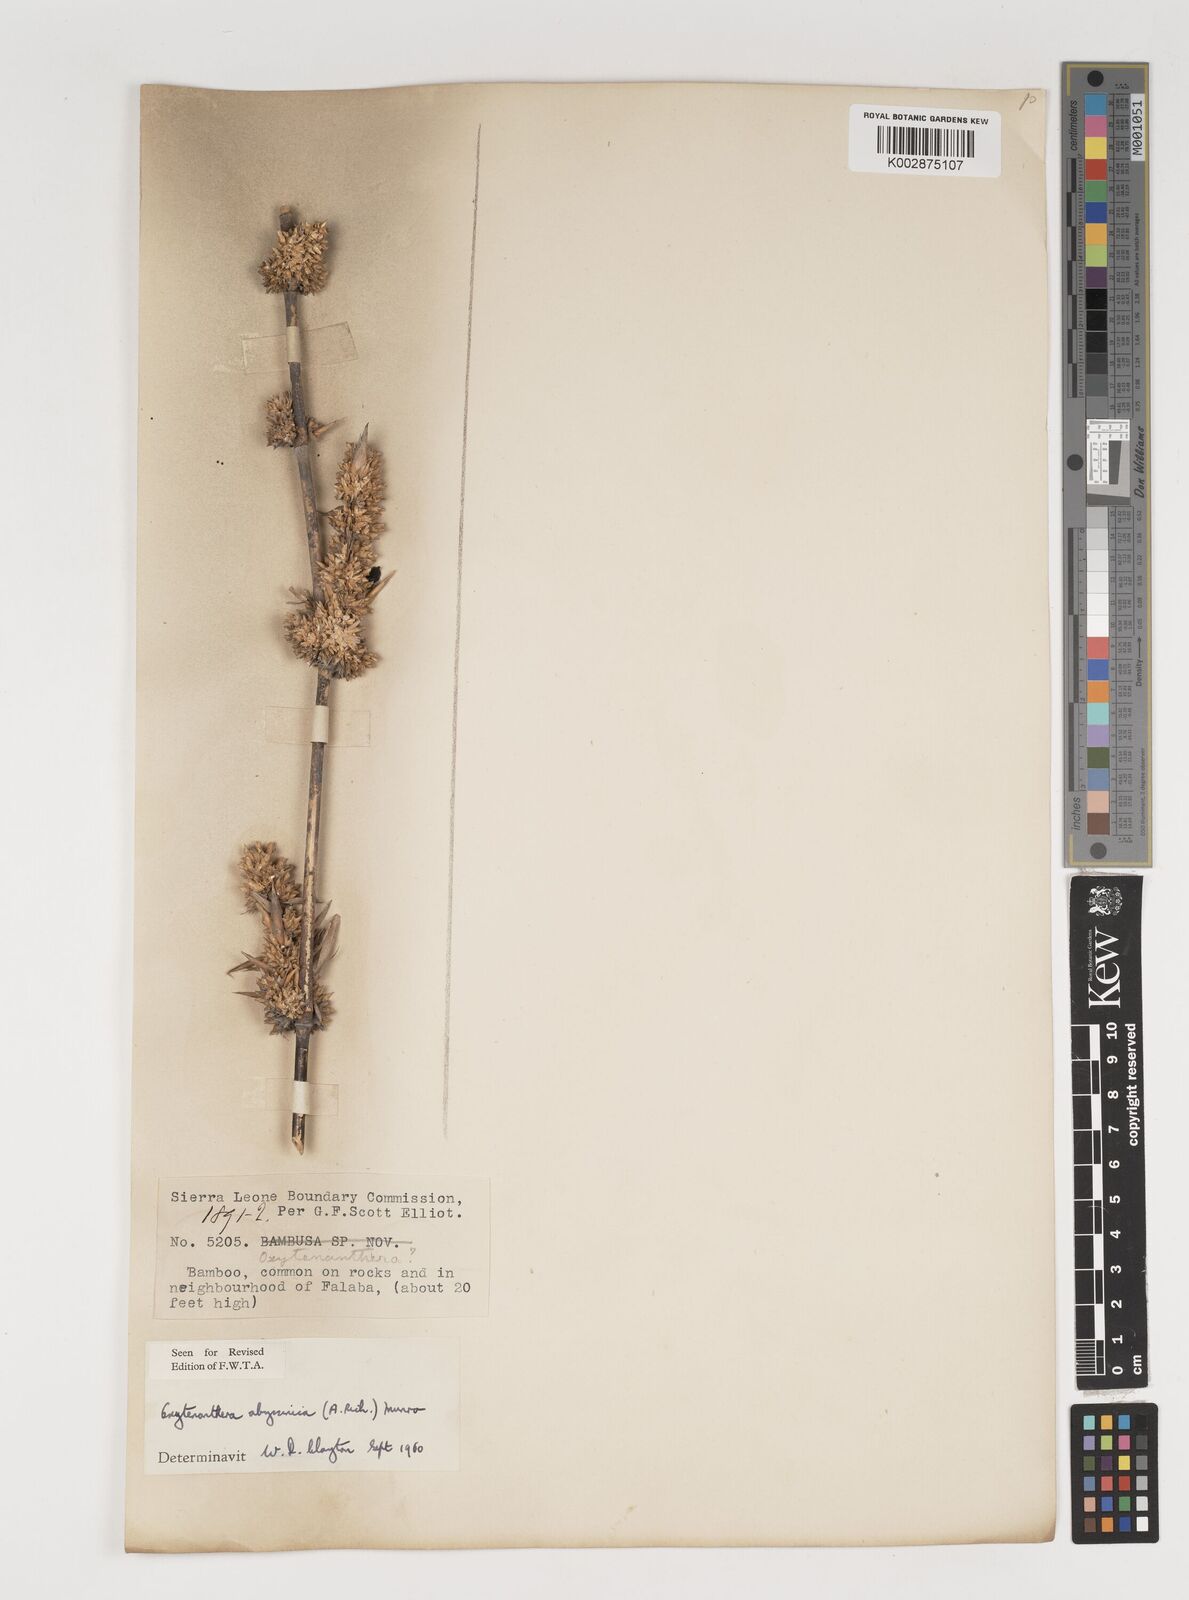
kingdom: Plantae
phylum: Tracheophyta
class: Liliopsida
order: Poales
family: Poaceae
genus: Oxytenanthera
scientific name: Oxytenanthera abyssinica
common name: Wine bamboo
